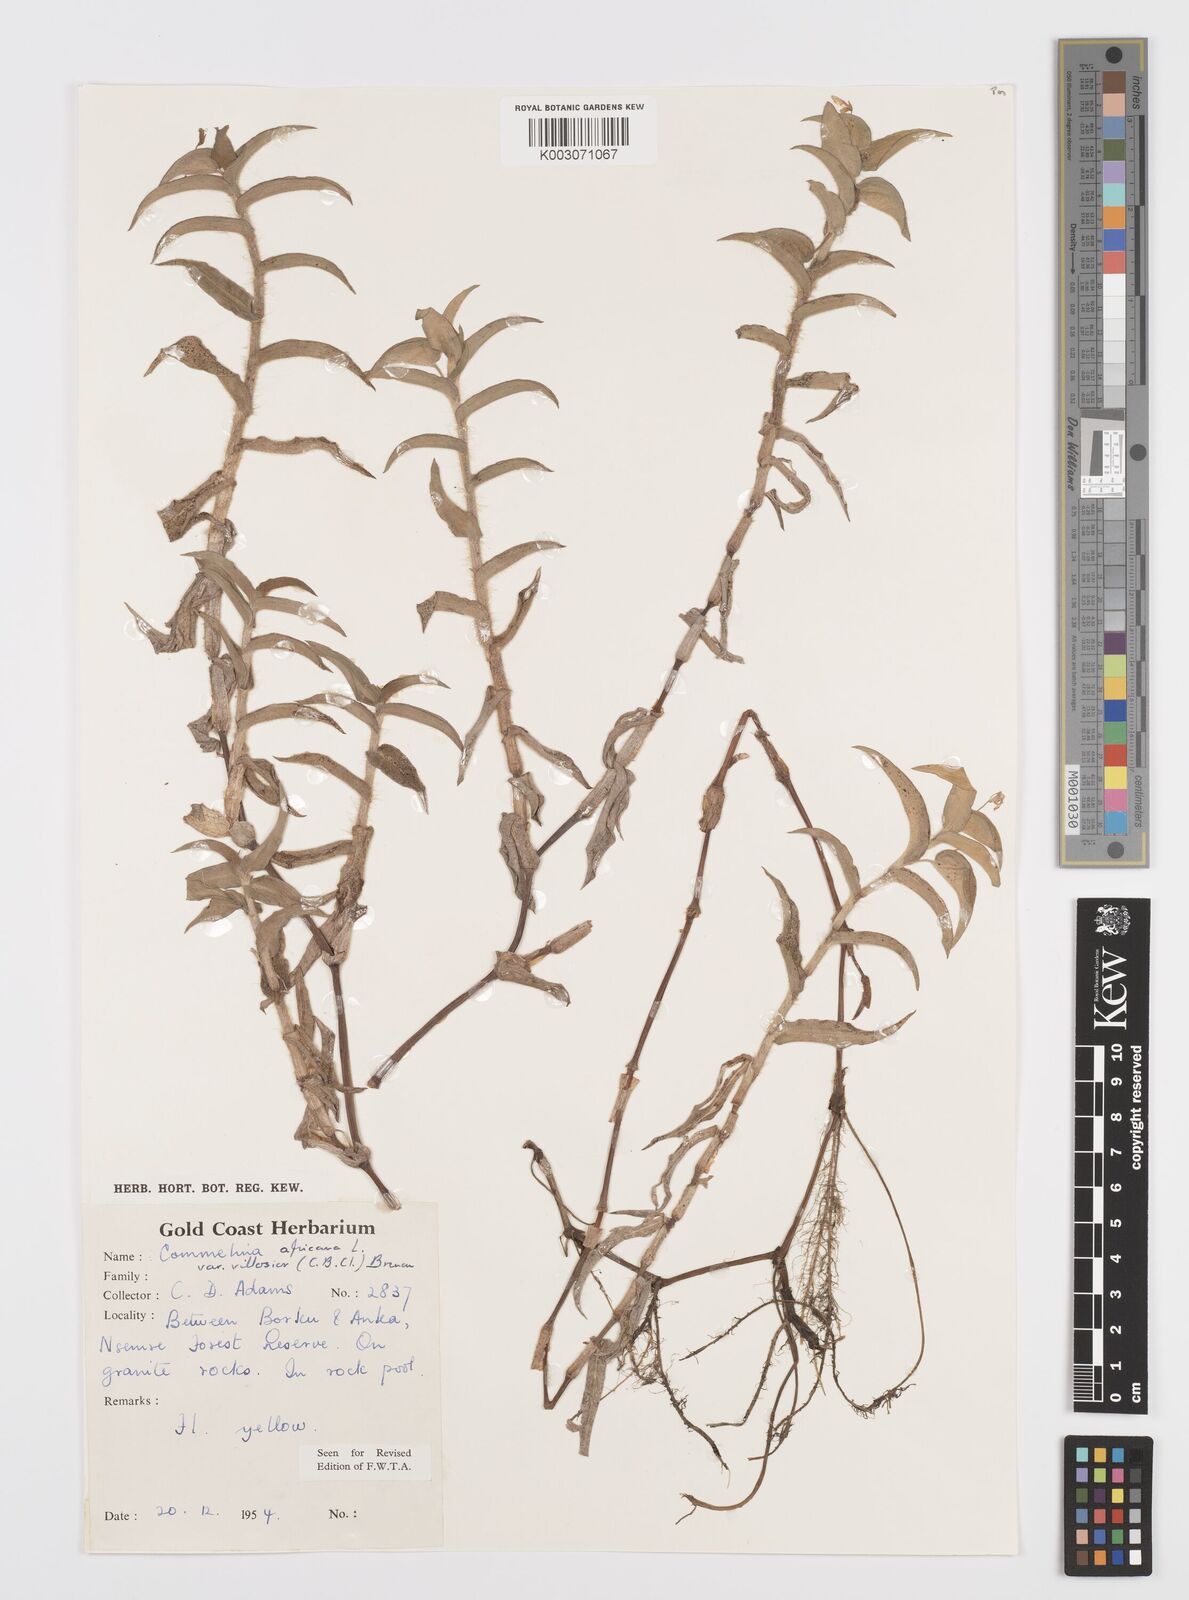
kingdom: Plantae
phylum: Tracheophyta
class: Liliopsida
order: Commelinales
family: Commelinaceae
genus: Commelina
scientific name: Commelina africana
